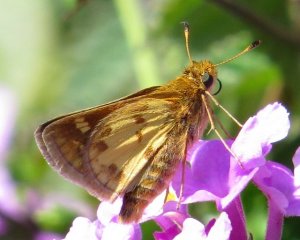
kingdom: Animalia
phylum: Arthropoda
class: Insecta
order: Lepidoptera
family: Hesperiidae
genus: Polites
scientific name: Polites coras
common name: Peck's Skipper
